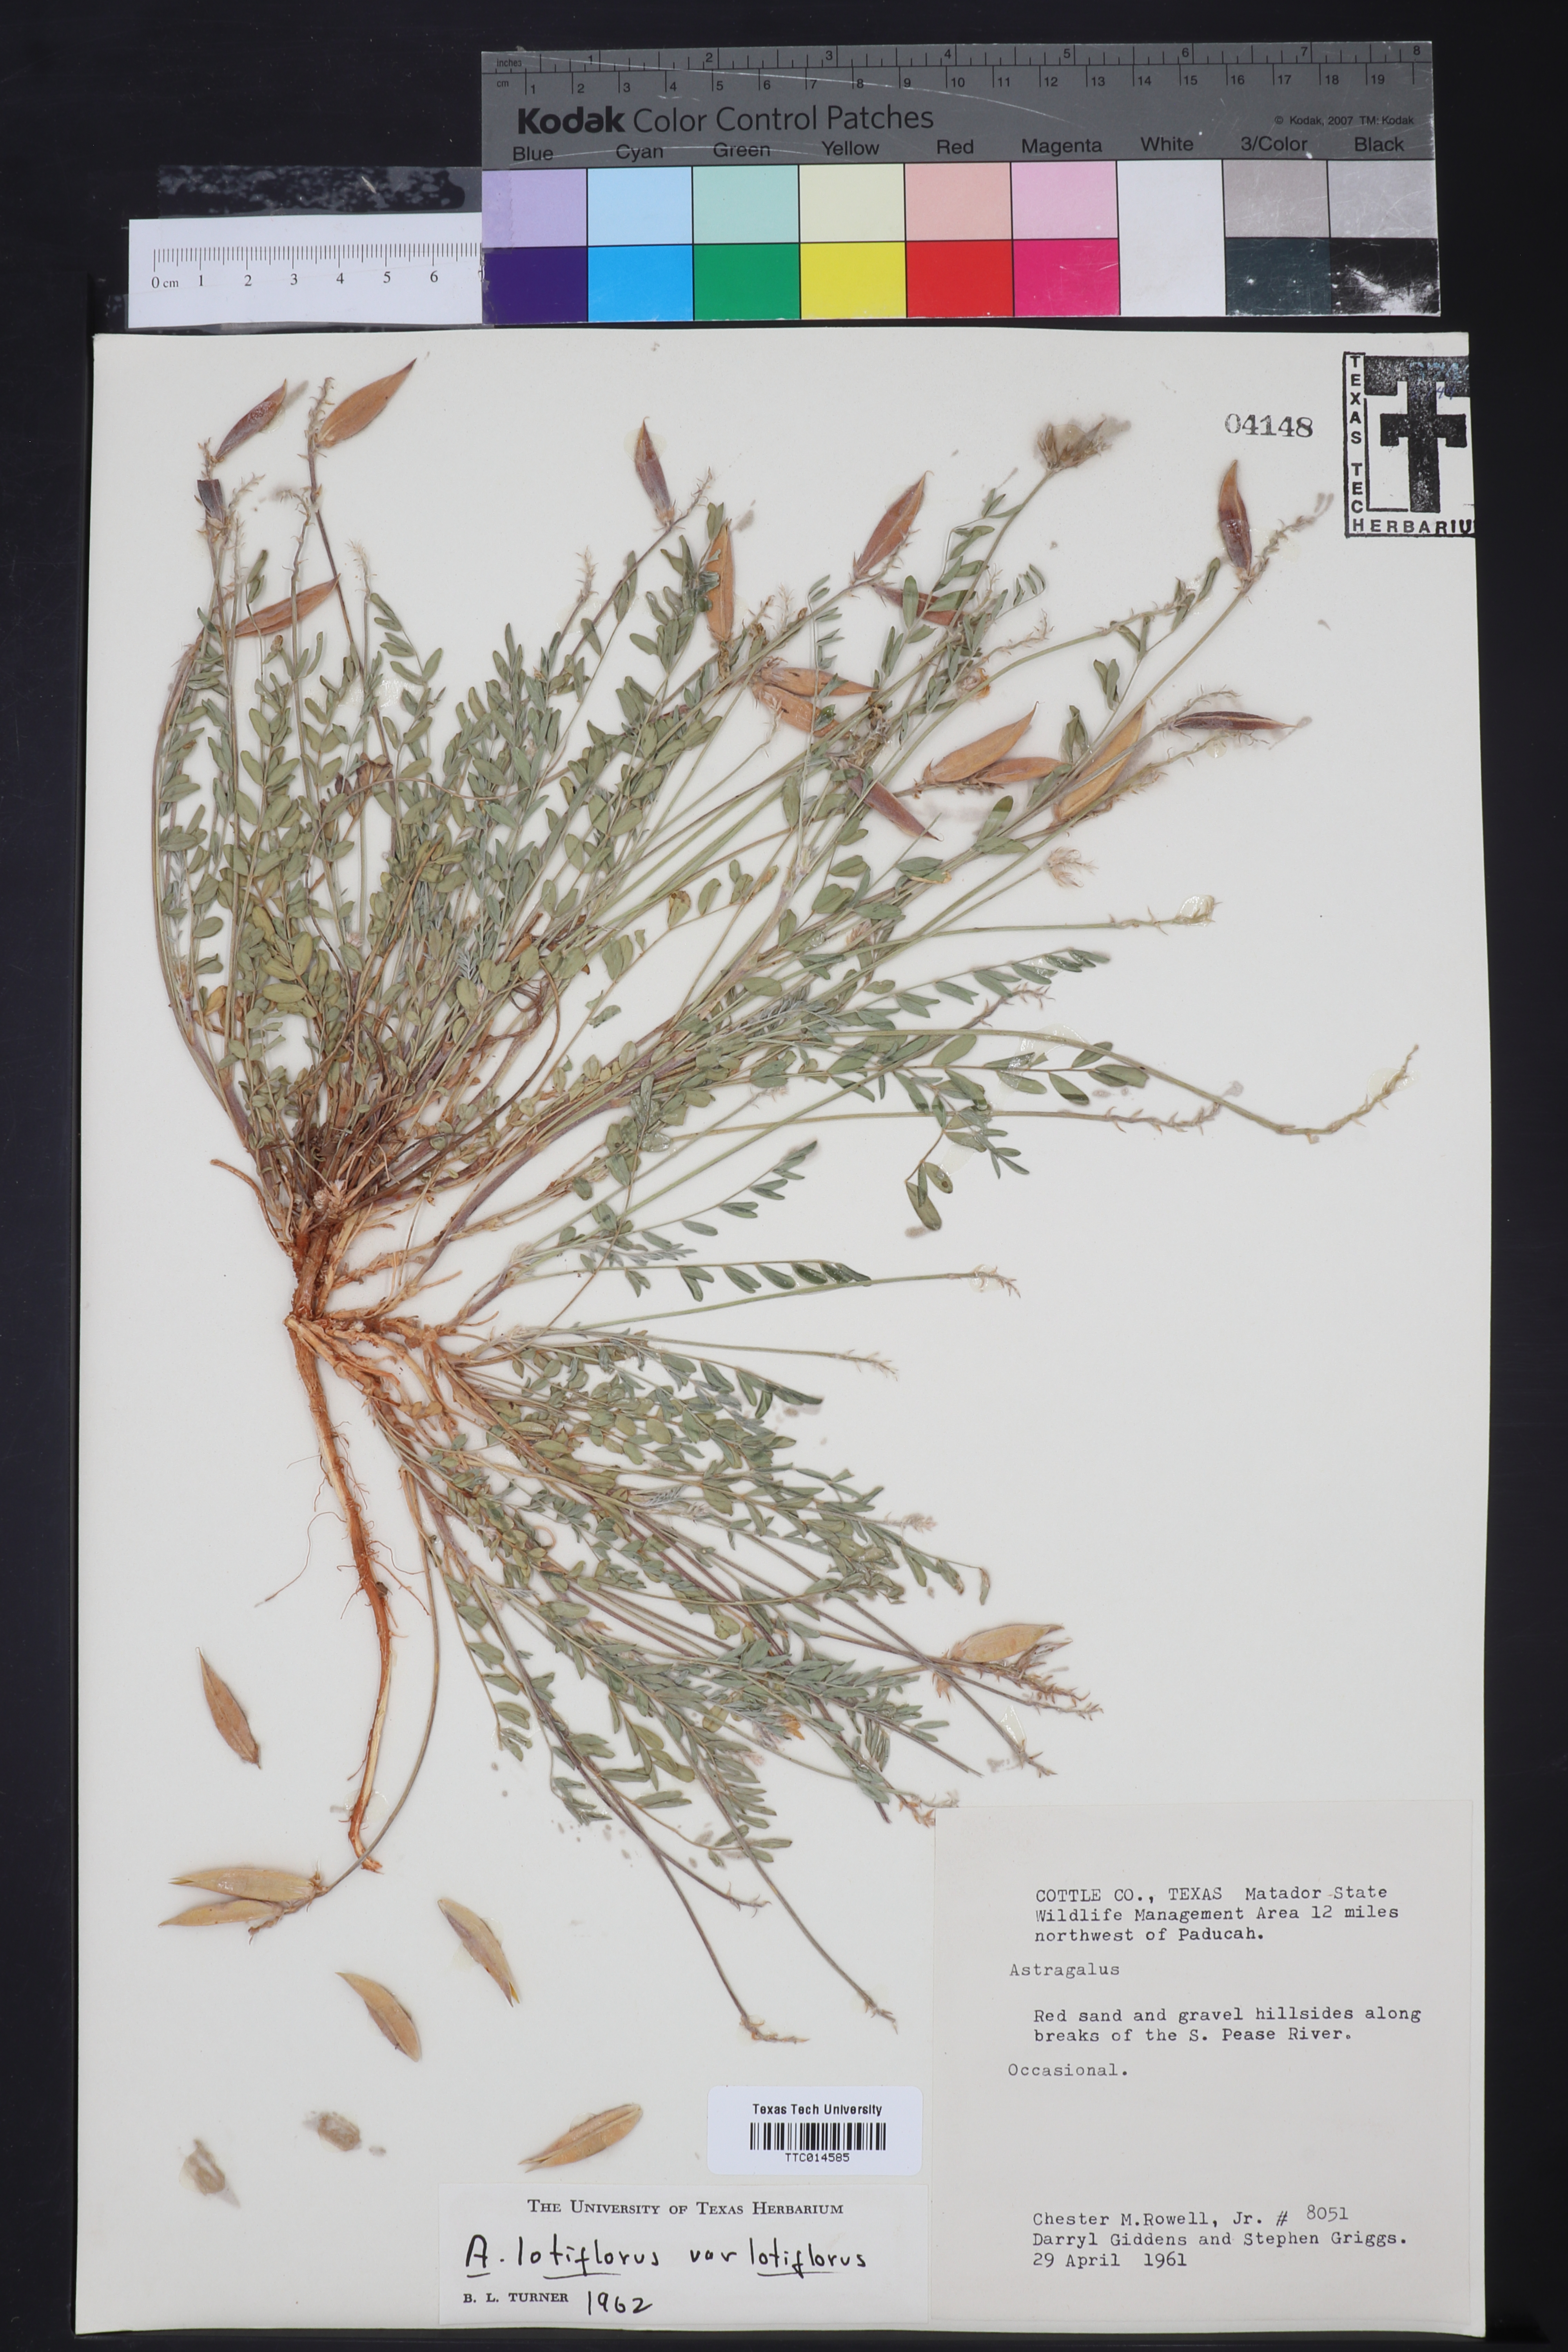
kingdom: Plantae
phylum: Tracheophyta
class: Magnoliopsida
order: Fabales
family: Fabaceae
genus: Astragalus
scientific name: Astragalus lotiflorus
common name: Lotus milk-vetch
